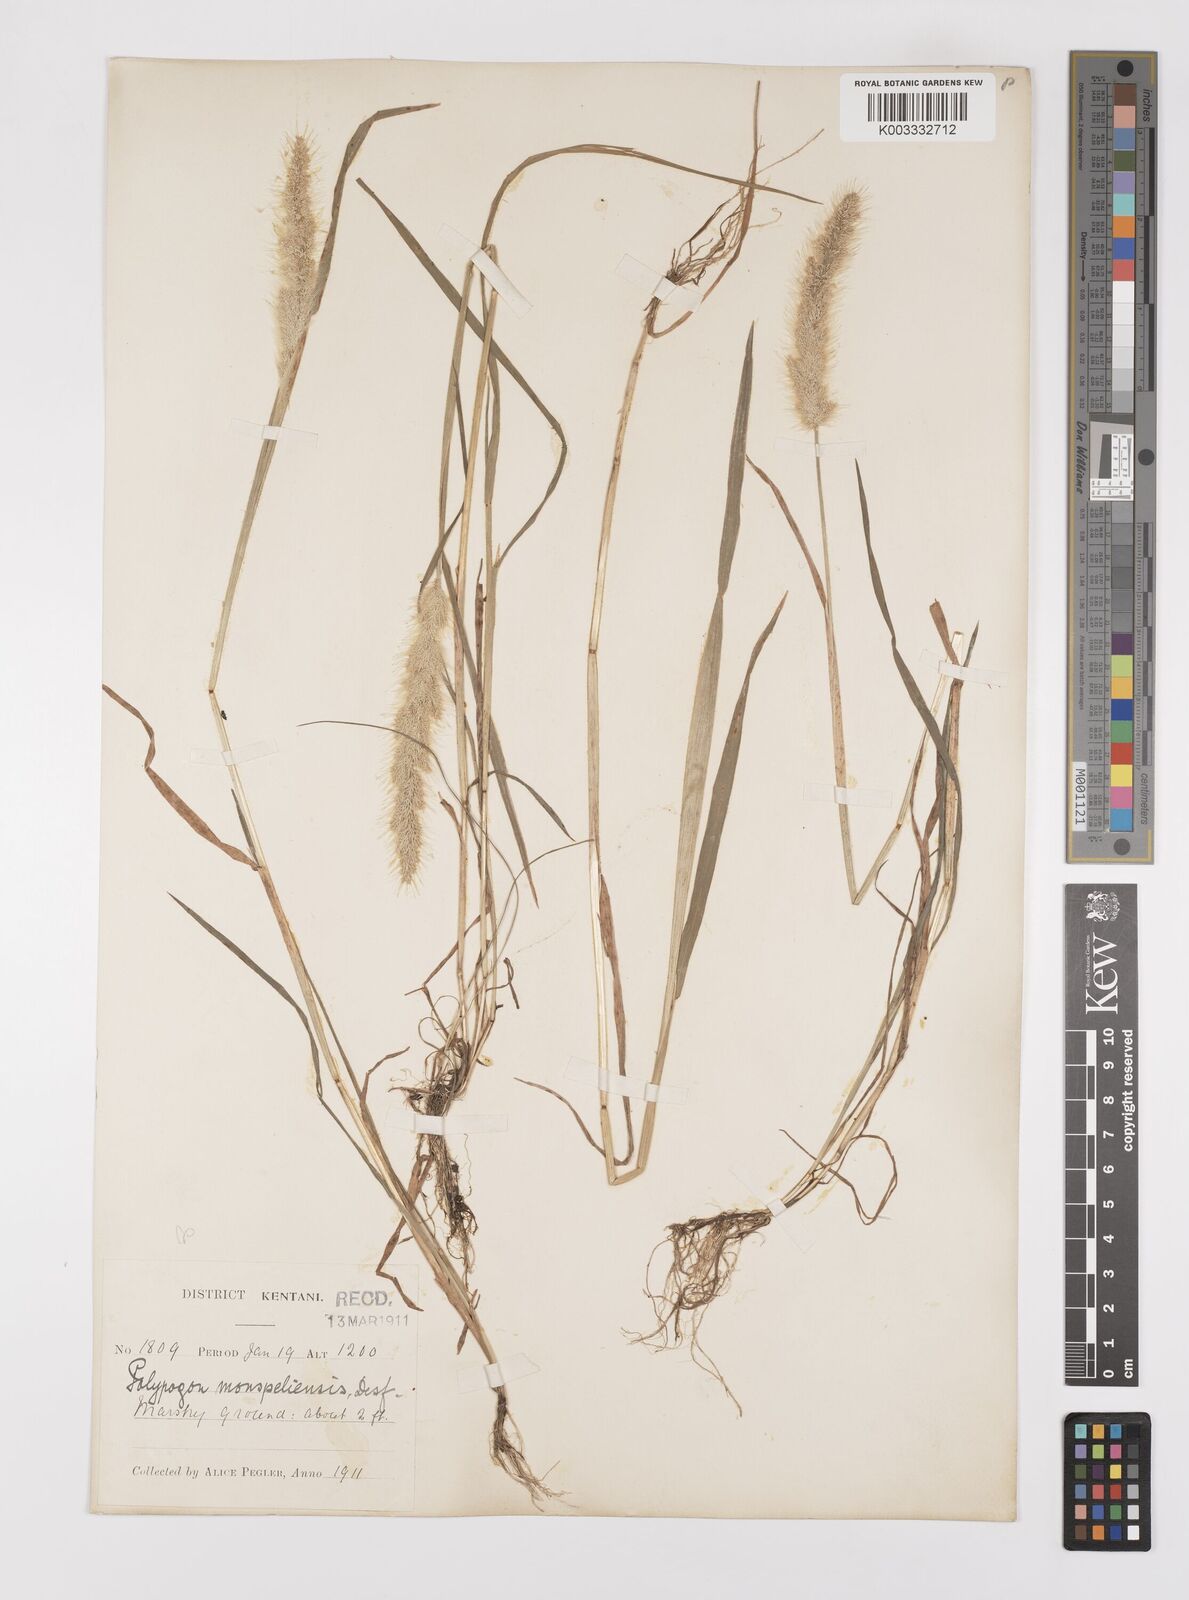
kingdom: Plantae
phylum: Tracheophyta
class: Liliopsida
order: Poales
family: Poaceae
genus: Polypogon
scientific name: Polypogon monspeliensis
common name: Annual rabbitsfoot grass
